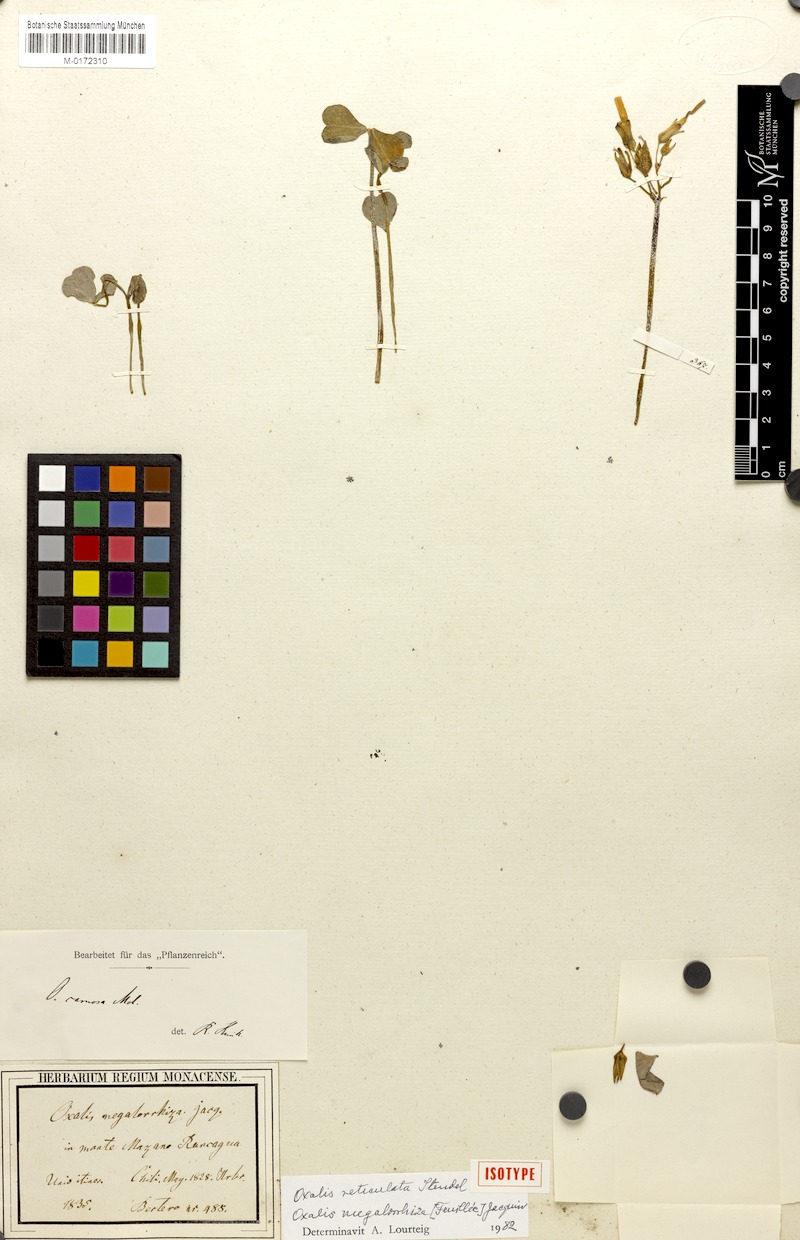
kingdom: Plantae
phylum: Tracheophyta
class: Magnoliopsida
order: Oxalidales
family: Oxalidaceae
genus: Oxalis
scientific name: Oxalis megalorrhiza
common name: Fleshy yellow-sorrel
